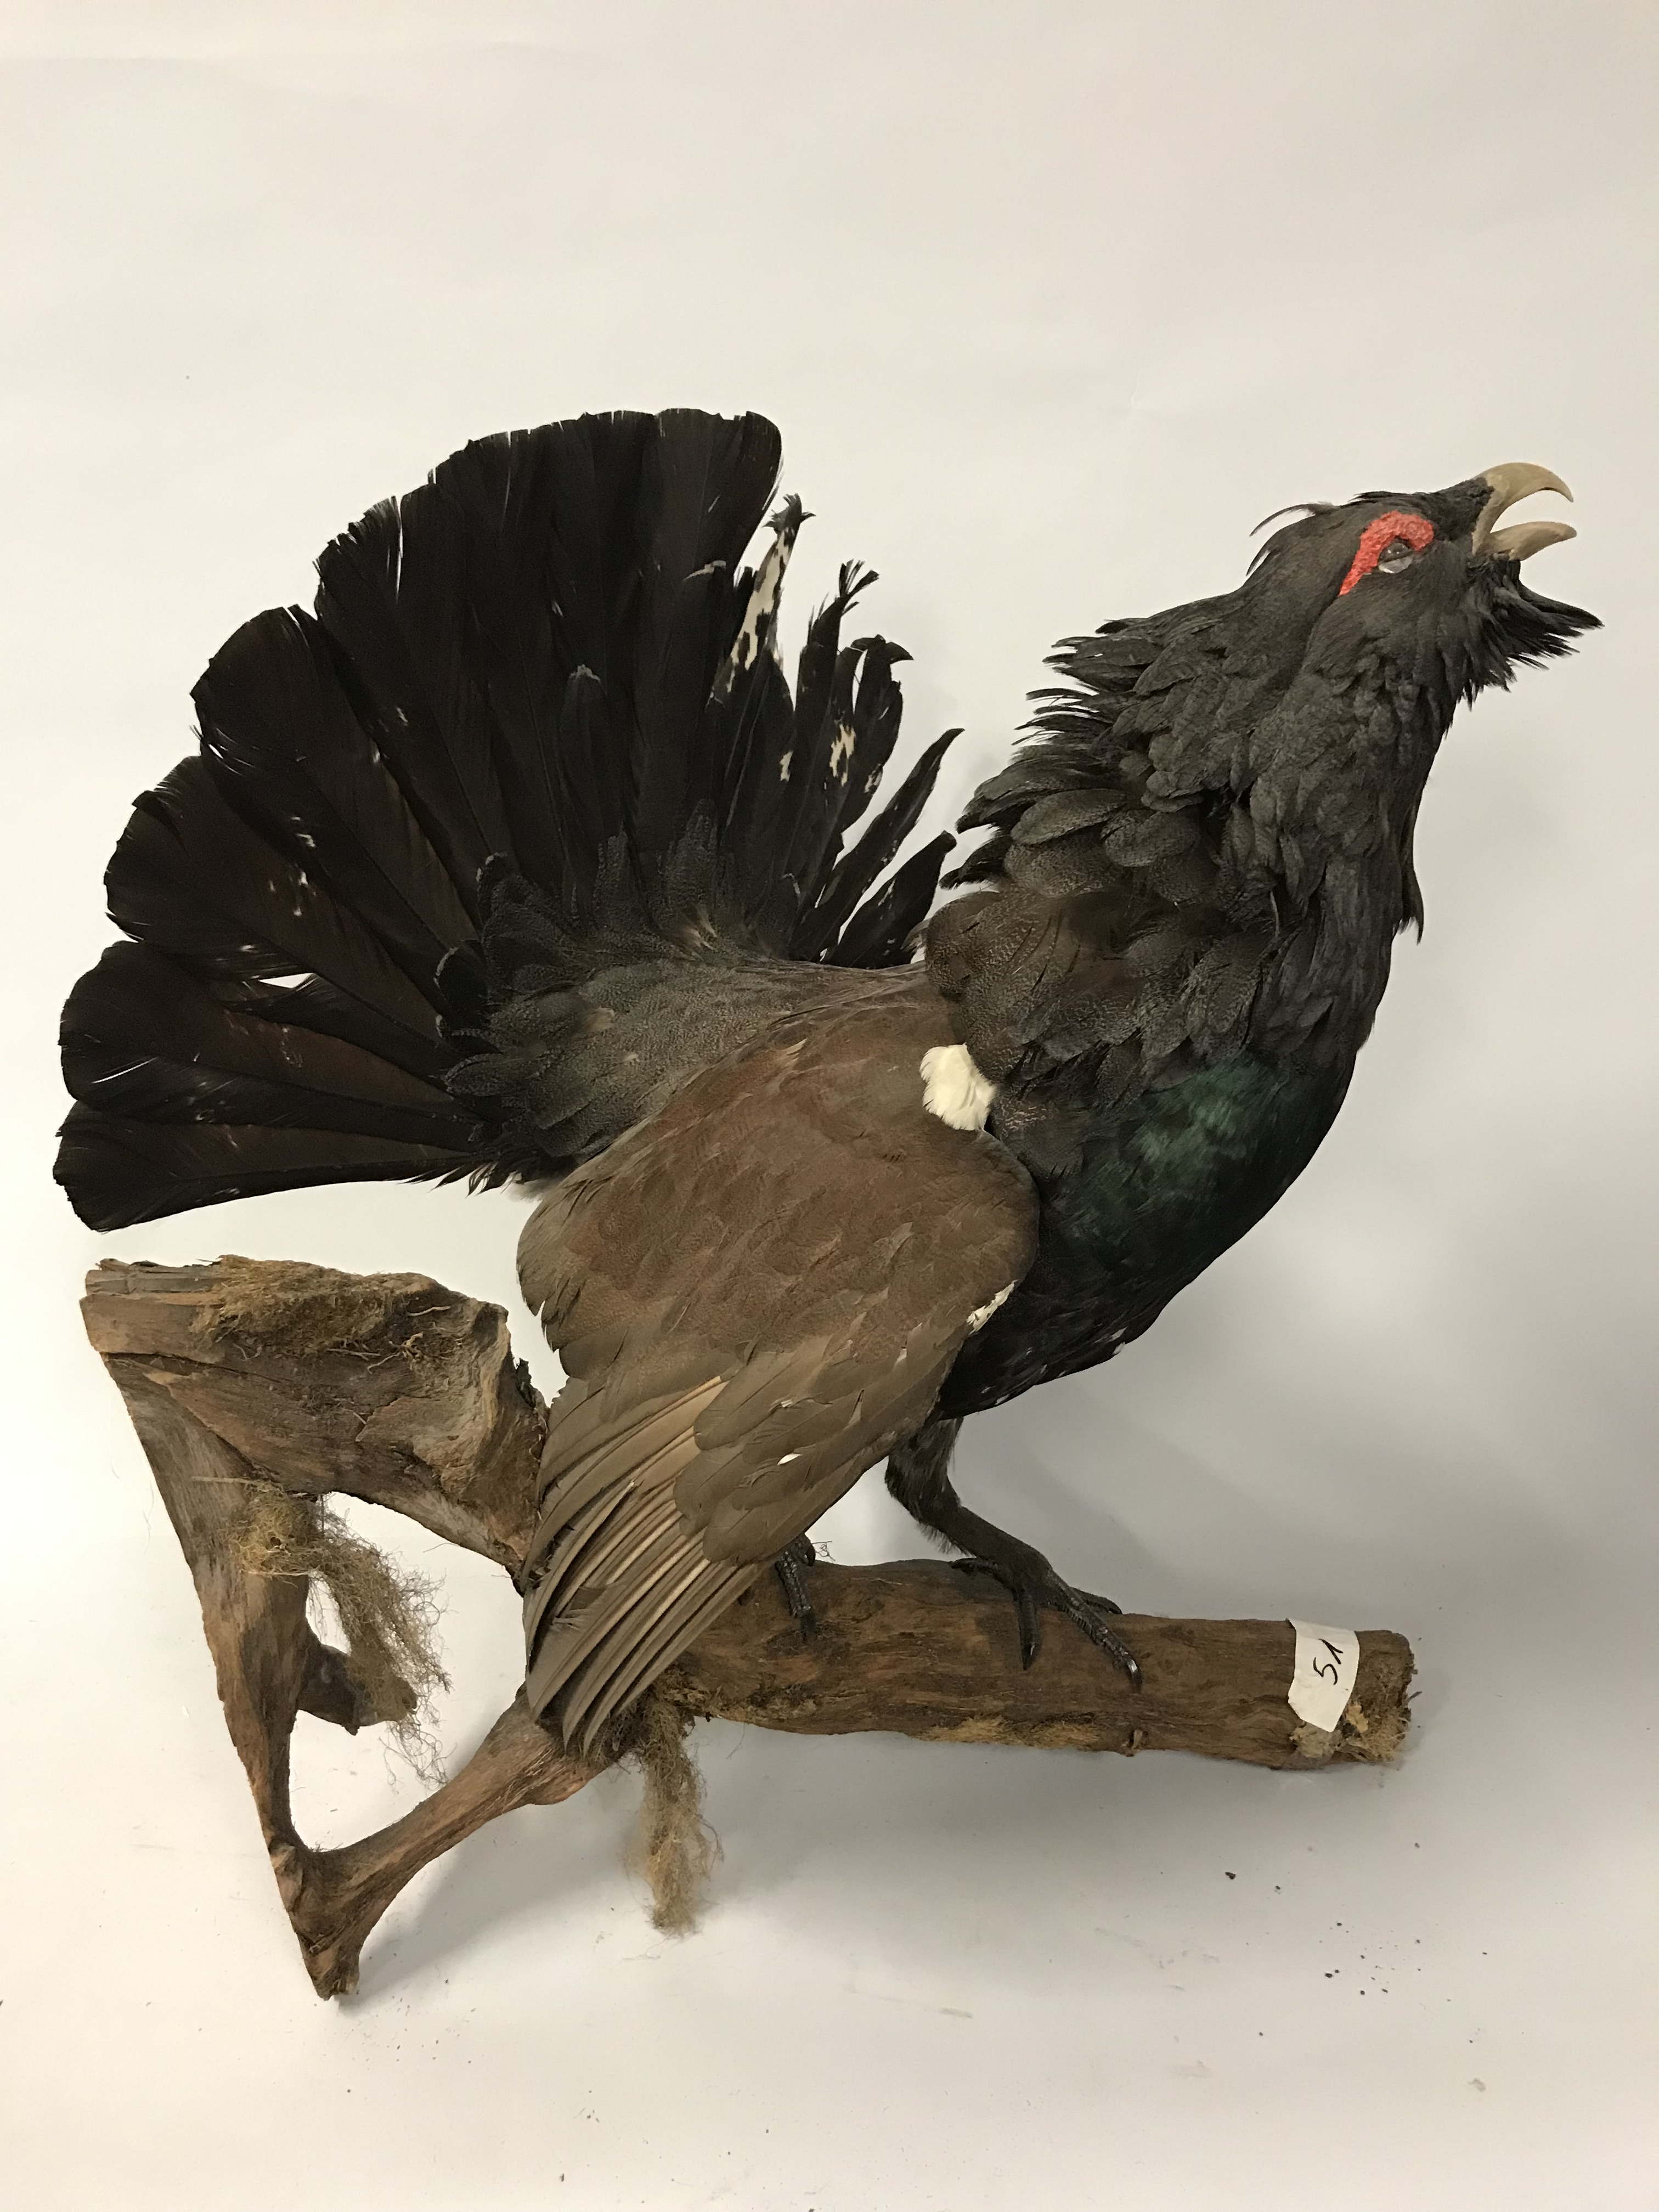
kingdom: Animalia
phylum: Chordata
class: Aves
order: Galliformes
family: Phasianidae
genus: Tetrao
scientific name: Tetrao urogallus
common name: Western capercaillie
